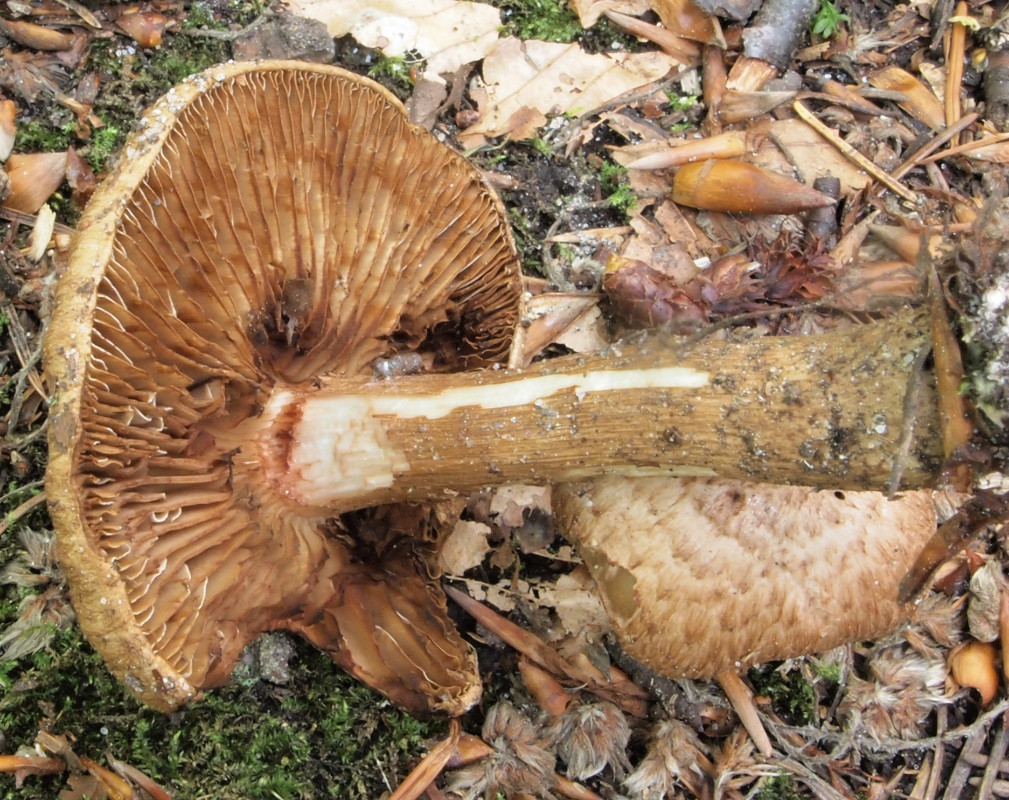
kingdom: Fungi
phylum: Basidiomycota
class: Agaricomycetes
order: Agaricales
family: Inocybaceae
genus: Inosperma
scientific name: Inosperma bongardii
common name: Bongards trævlhat
